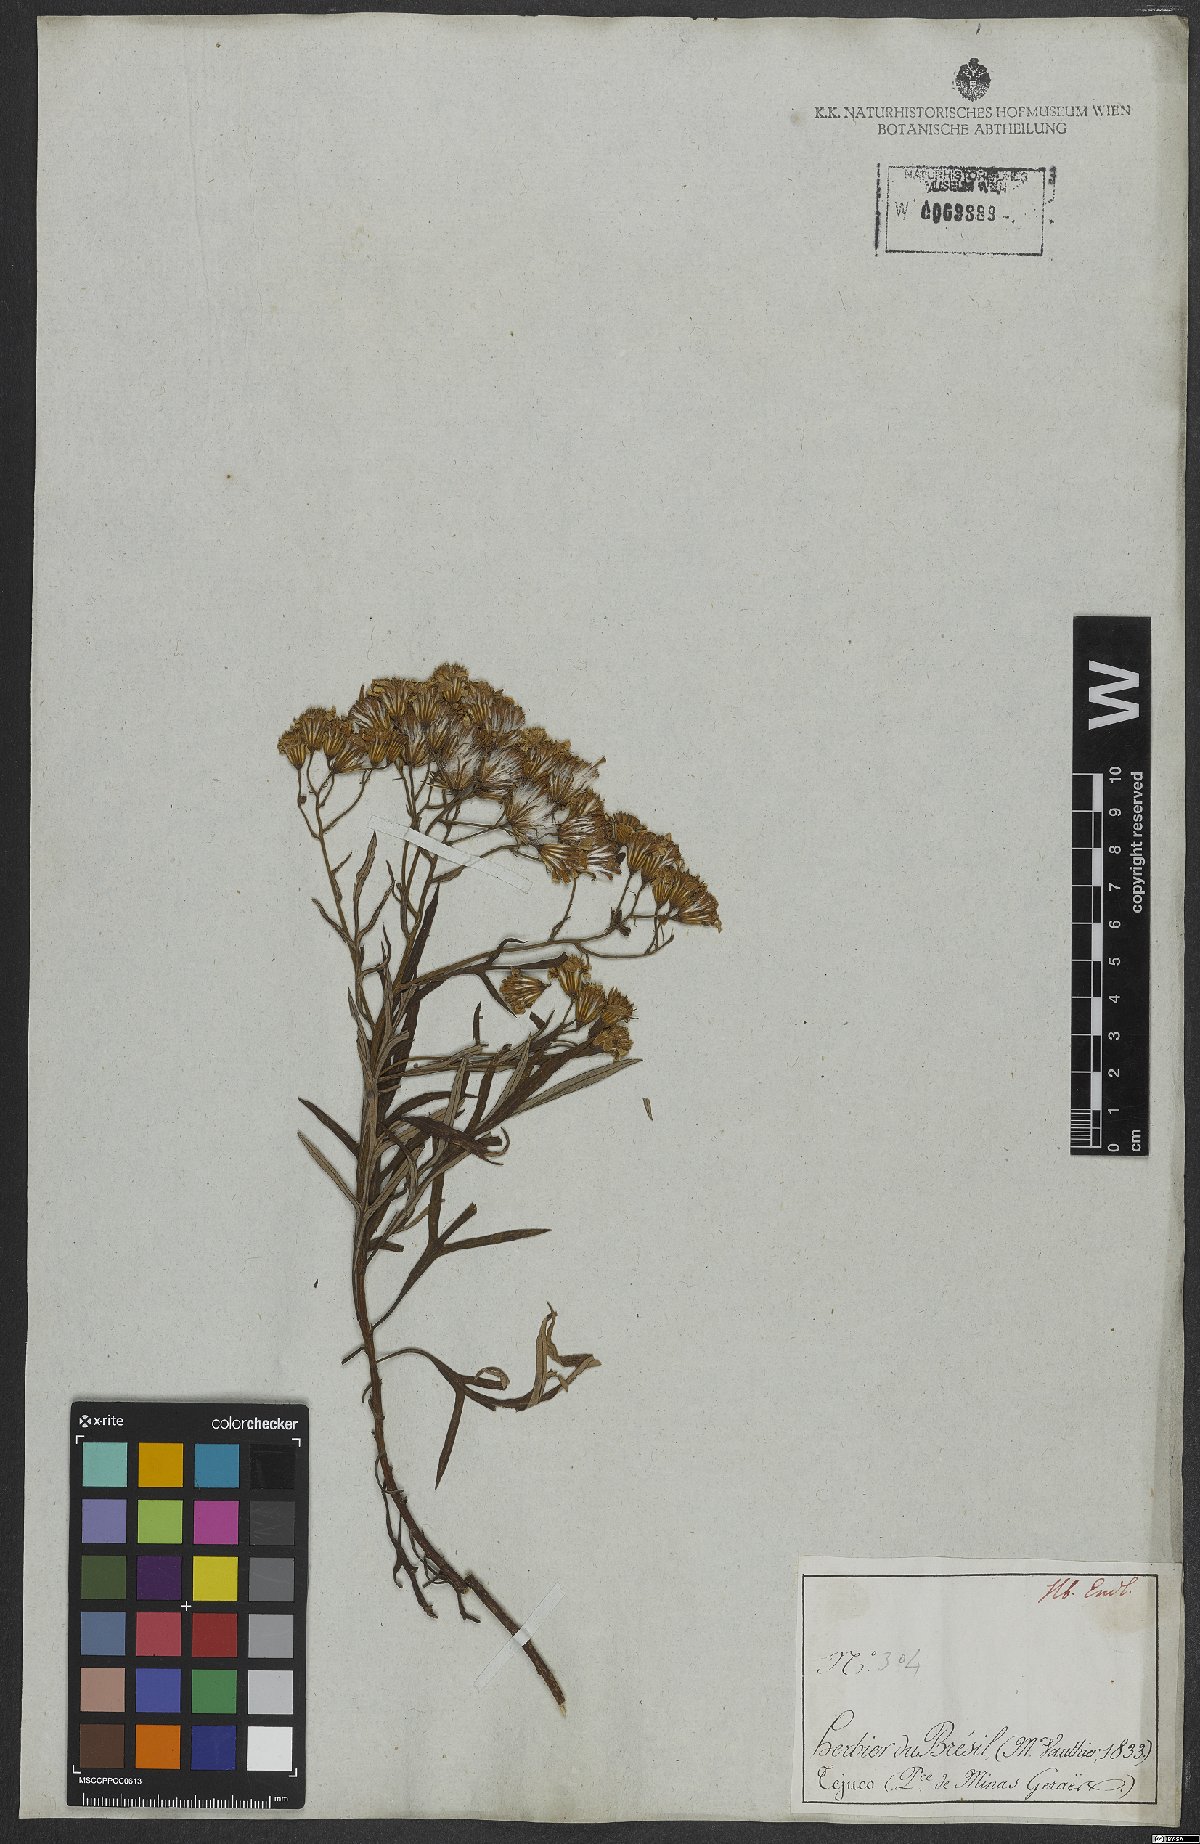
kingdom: Plantae
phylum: Tracheophyta
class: Magnoliopsida
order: Asterales
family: Asteraceae
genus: Senecio
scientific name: Senecio brasiliensis
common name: Hemp-leaf ragwort
